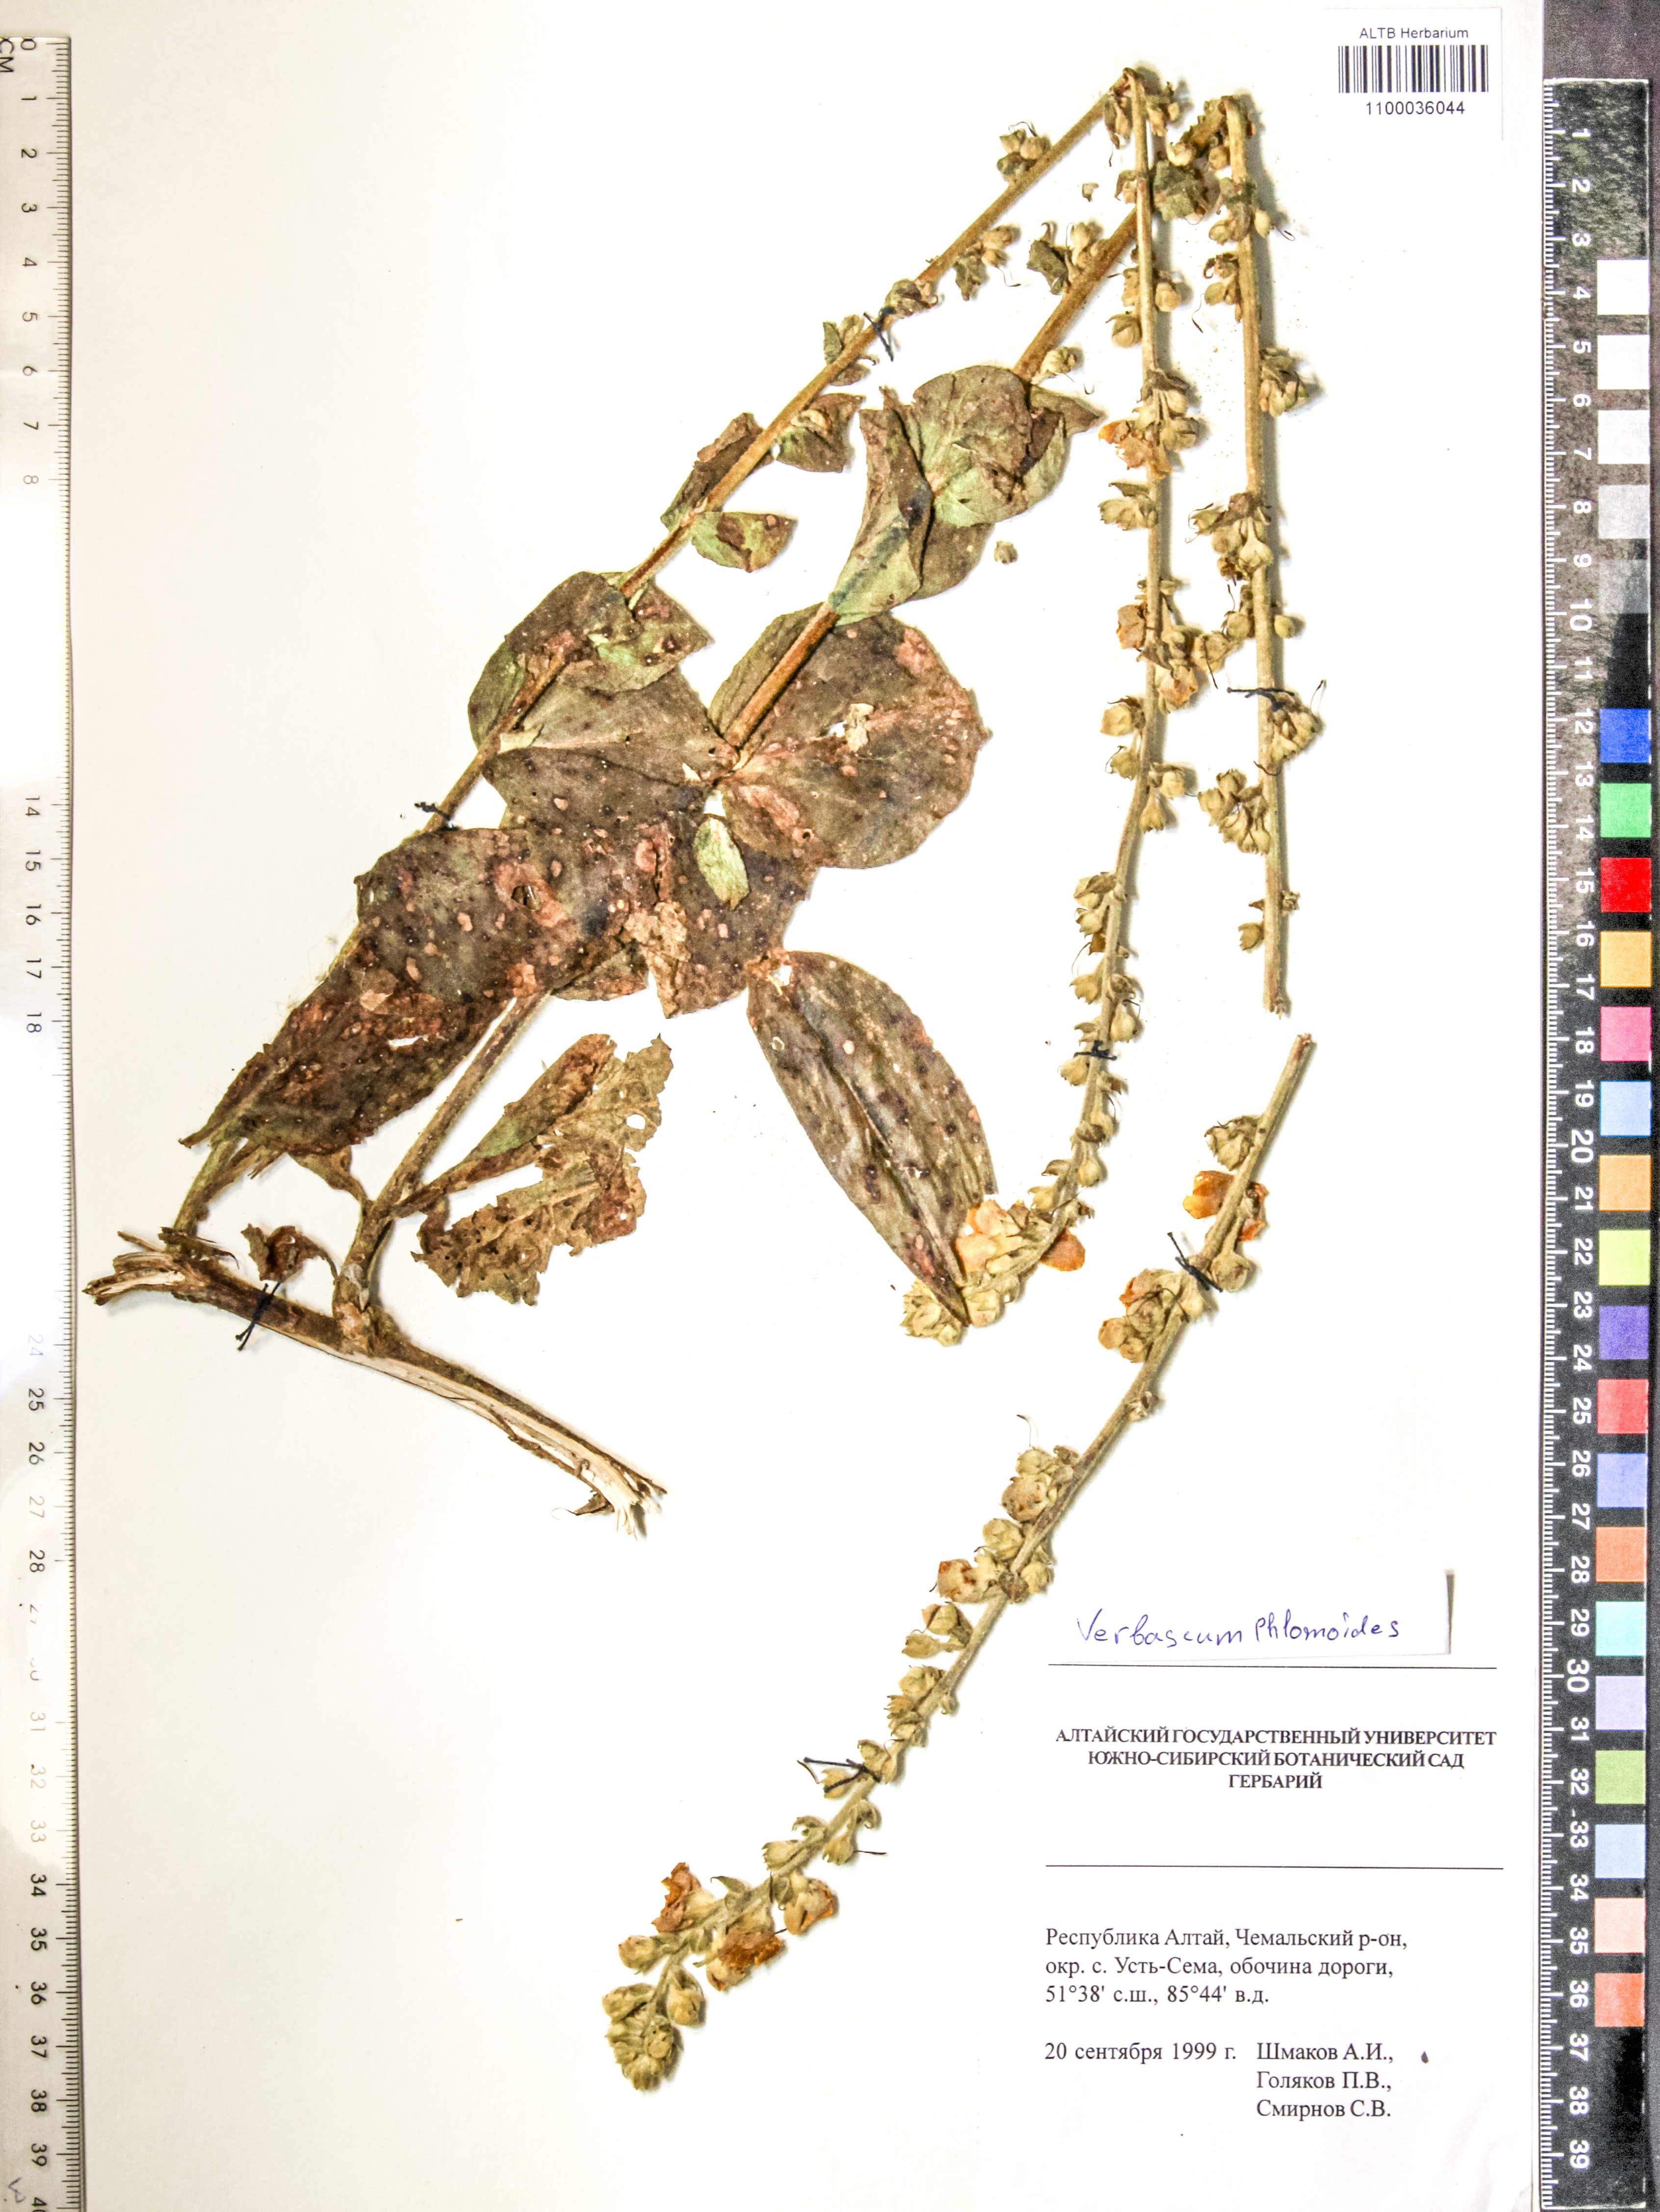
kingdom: Plantae
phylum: Tracheophyta
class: Magnoliopsida
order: Lamiales
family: Scrophulariaceae
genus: Verbascum
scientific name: Verbascum phlomoides
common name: Orange mullein
